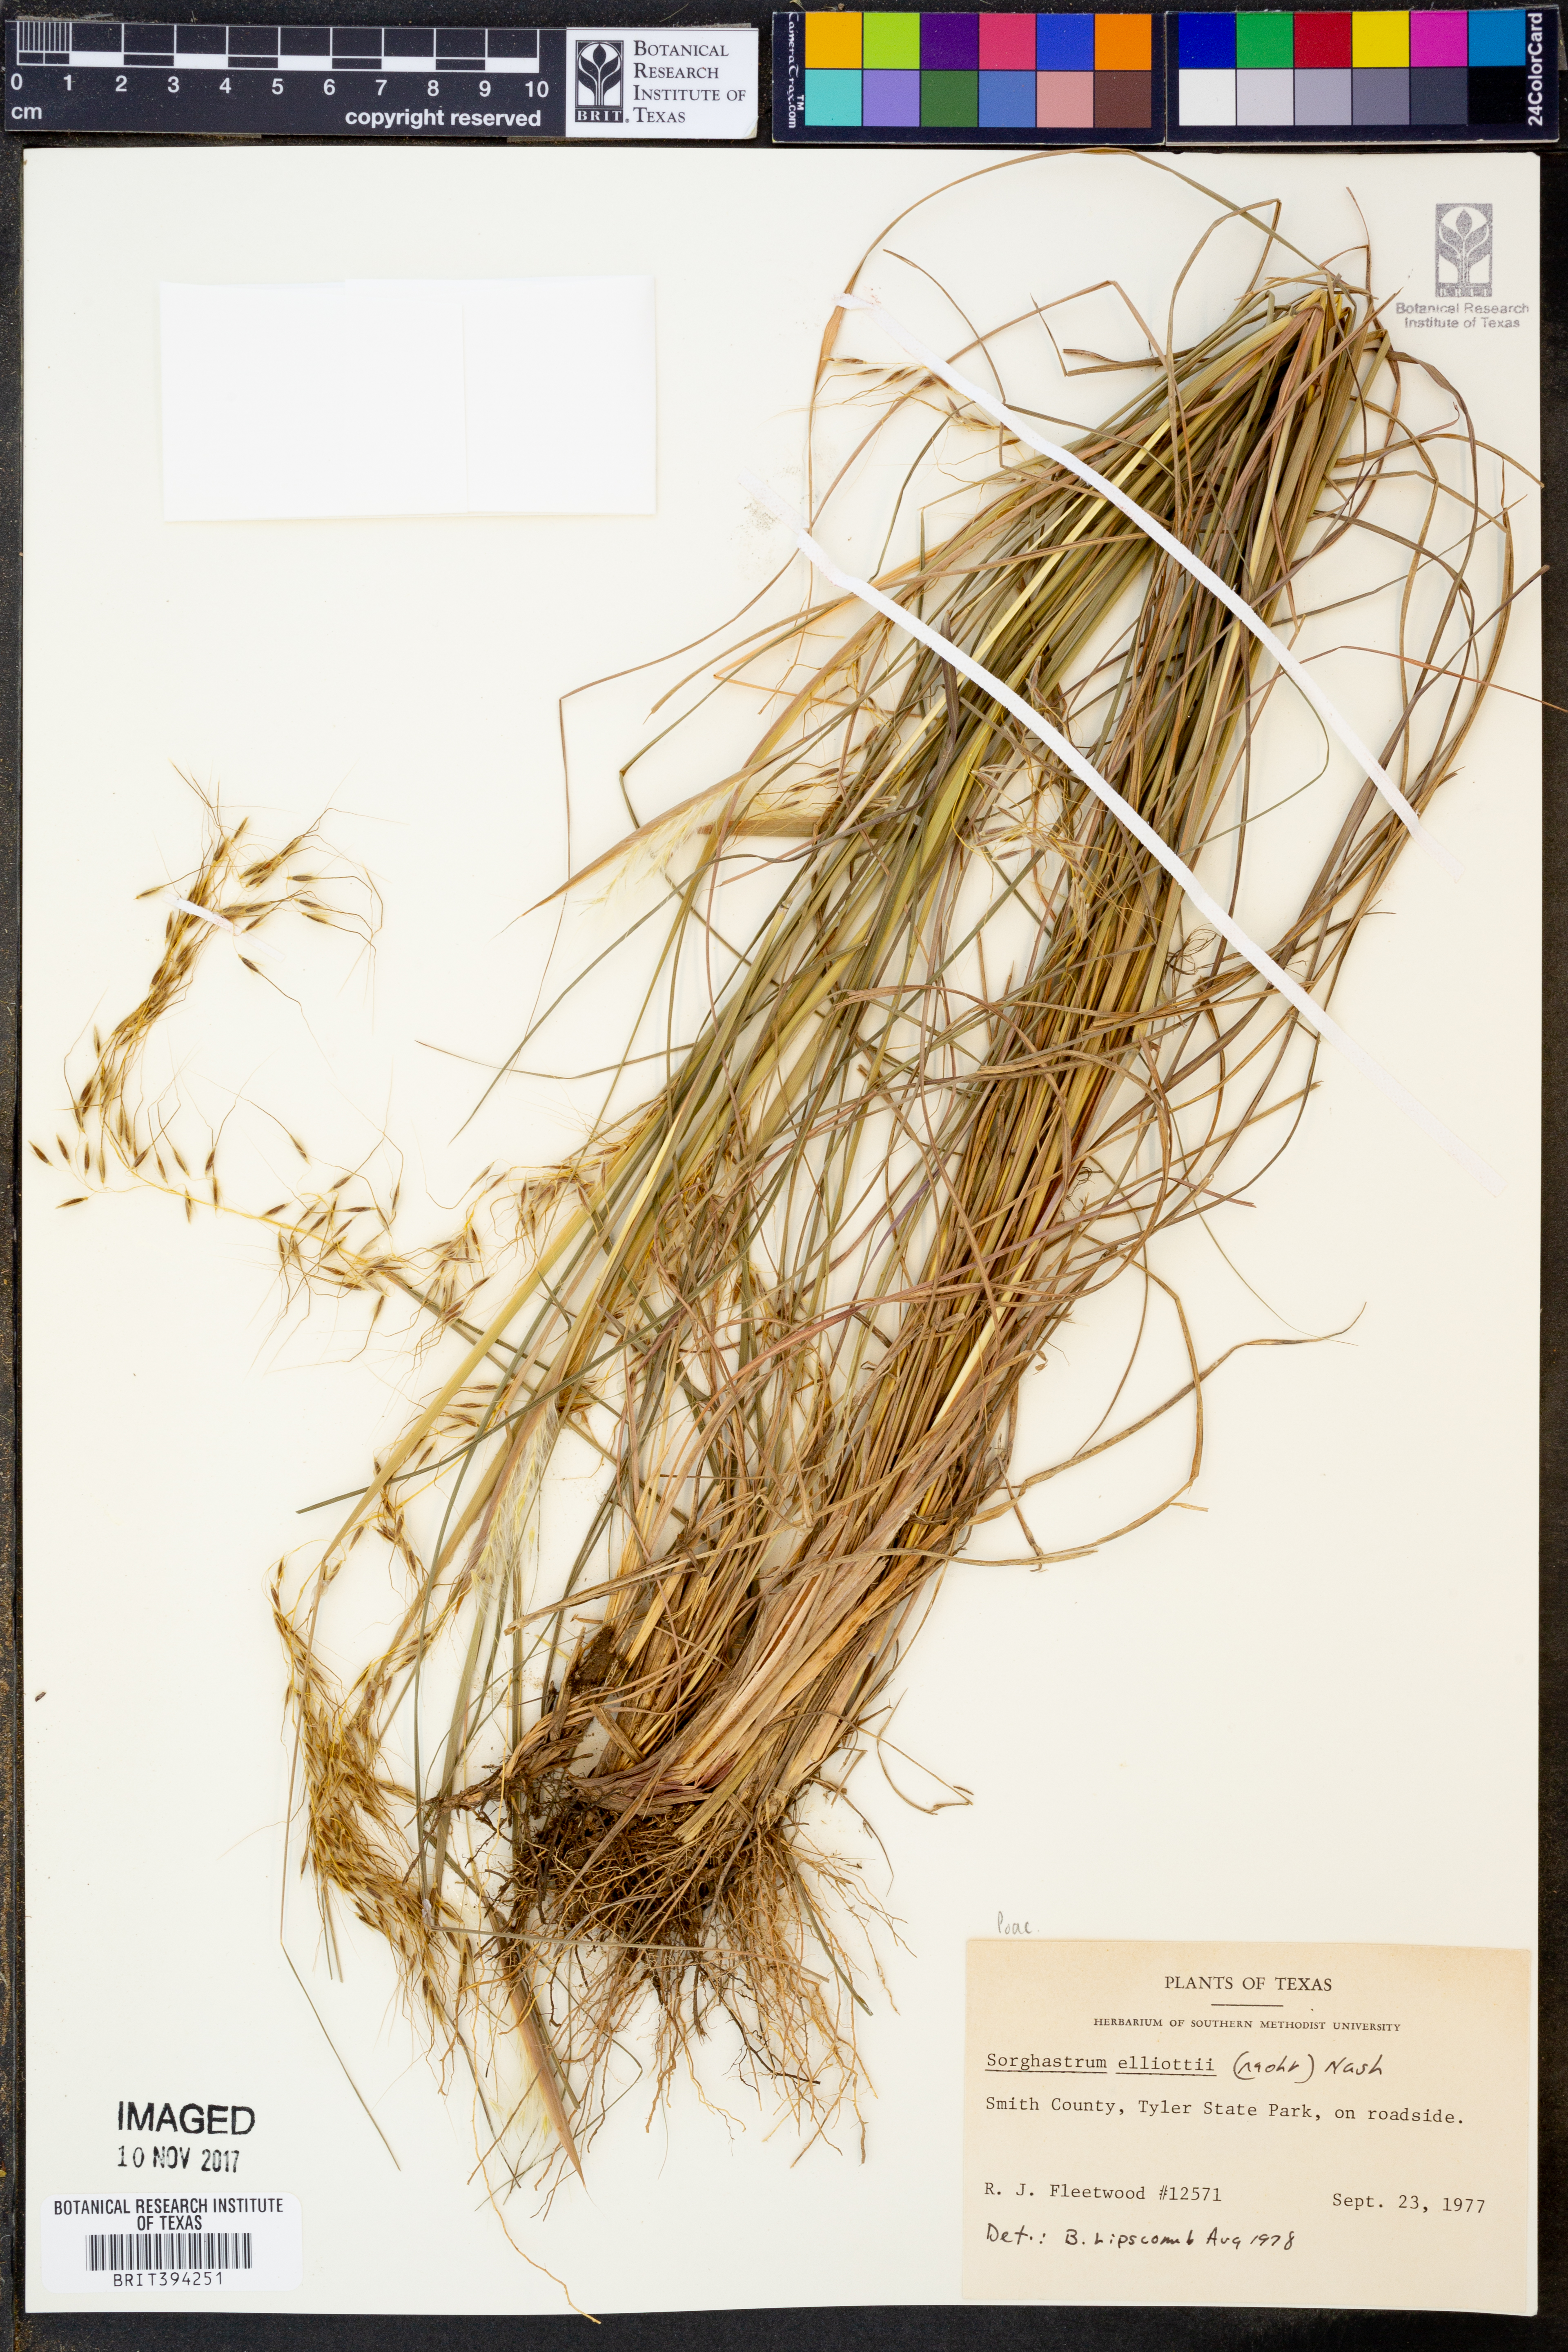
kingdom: Plantae
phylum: Tracheophyta
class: Liliopsida
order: Poales
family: Poaceae
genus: Sorghastrum
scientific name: Sorghastrum elliottii
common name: Slender indian grass
